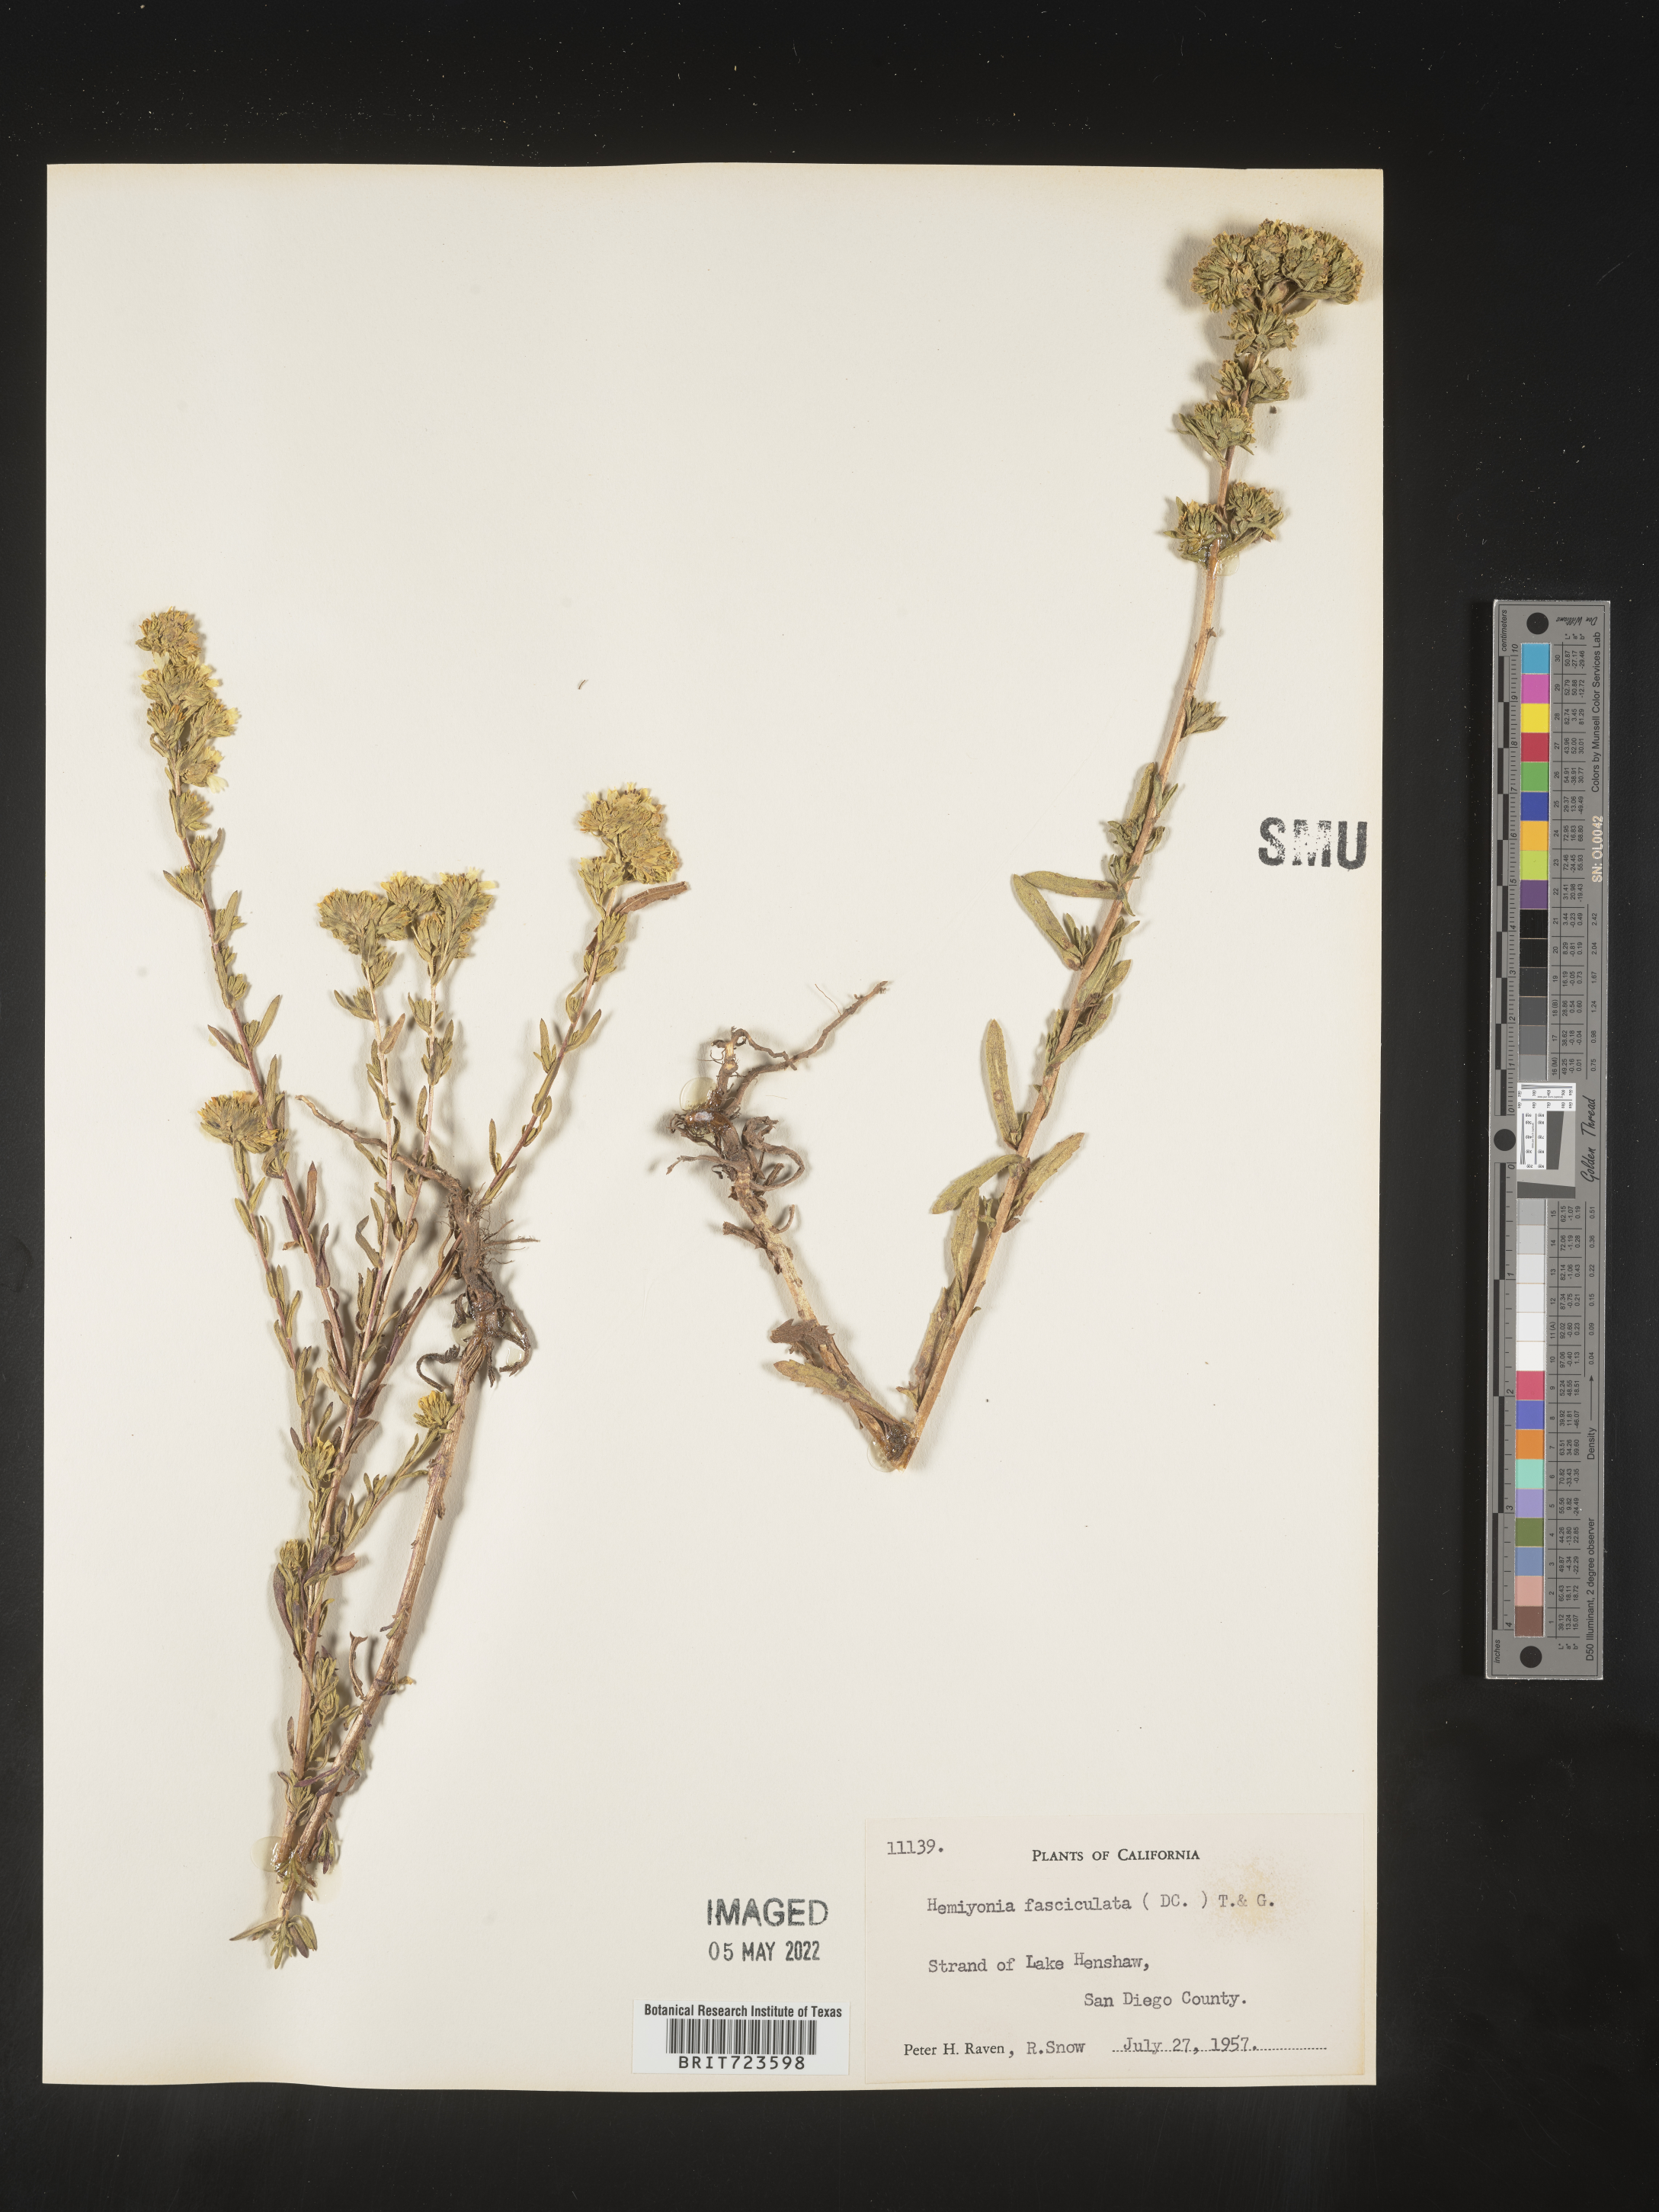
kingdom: Plantae
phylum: Tracheophyta
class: Magnoliopsida
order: Asterales
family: Asteraceae
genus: Hemizonia
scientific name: Hemizonia
